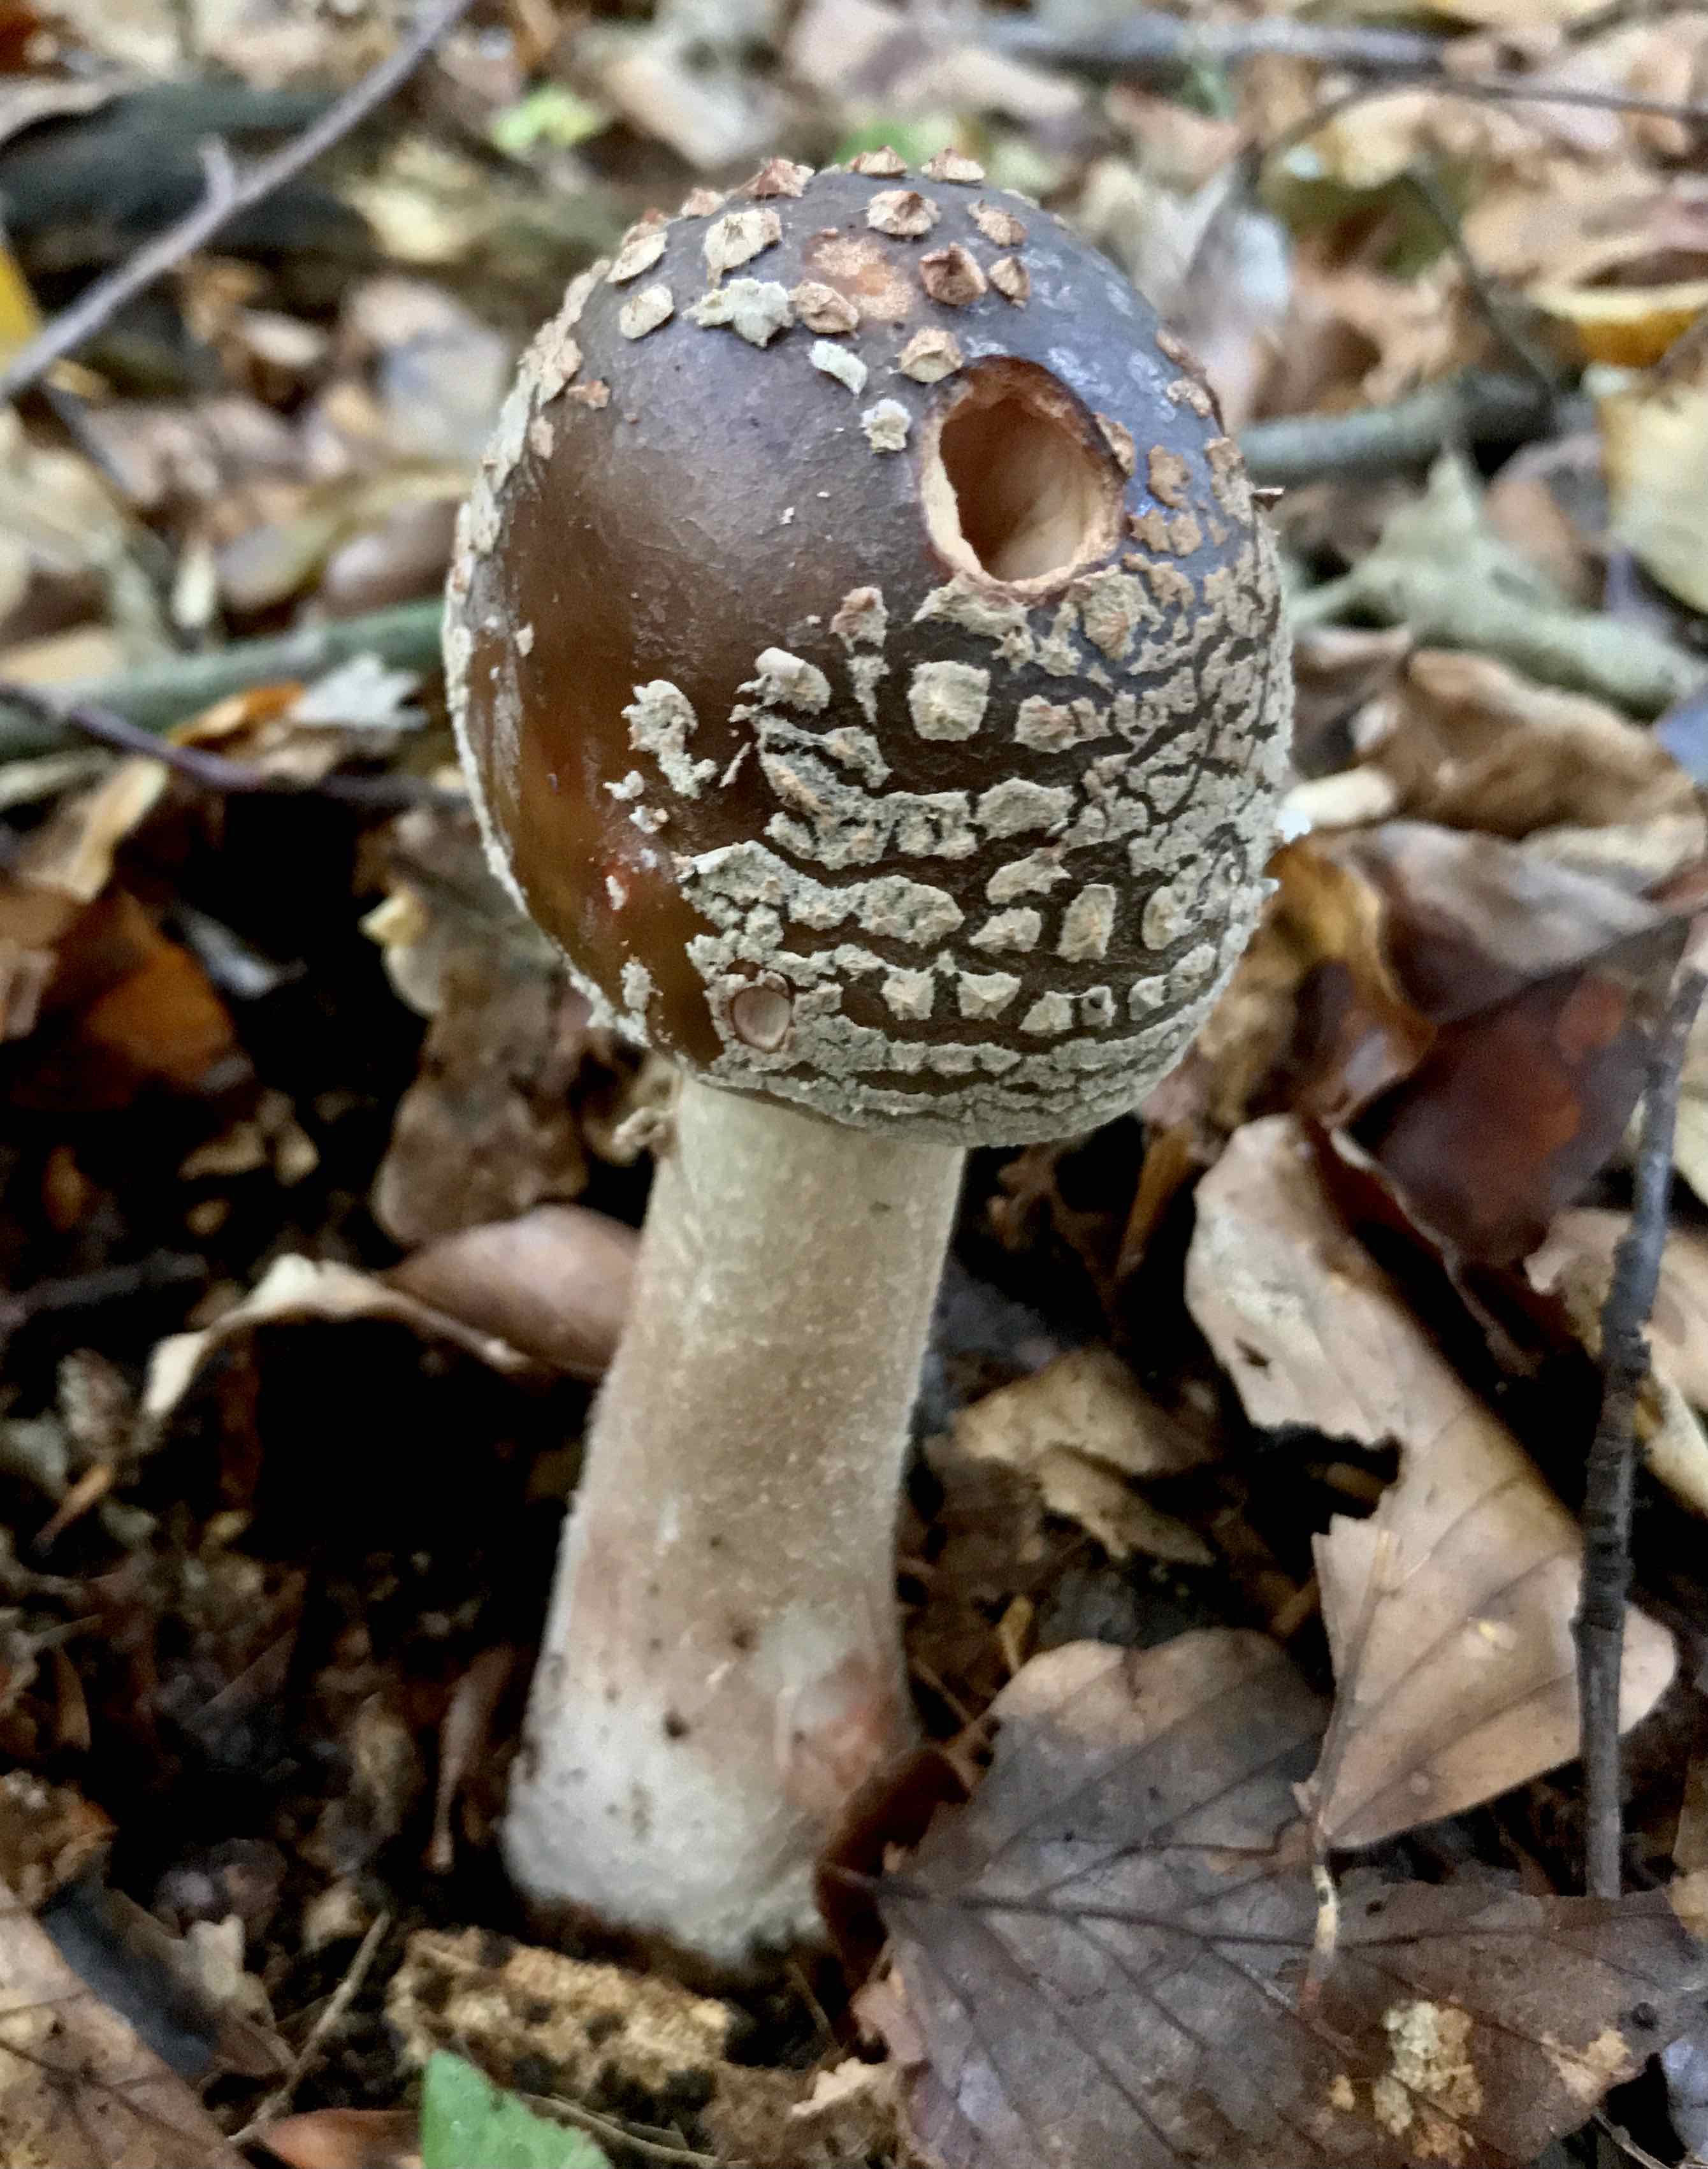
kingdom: Fungi
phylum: Basidiomycota
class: Agaricomycetes
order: Agaricales
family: Amanitaceae
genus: Amanita
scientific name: Amanita rubescens
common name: rødmende fluesvamp
